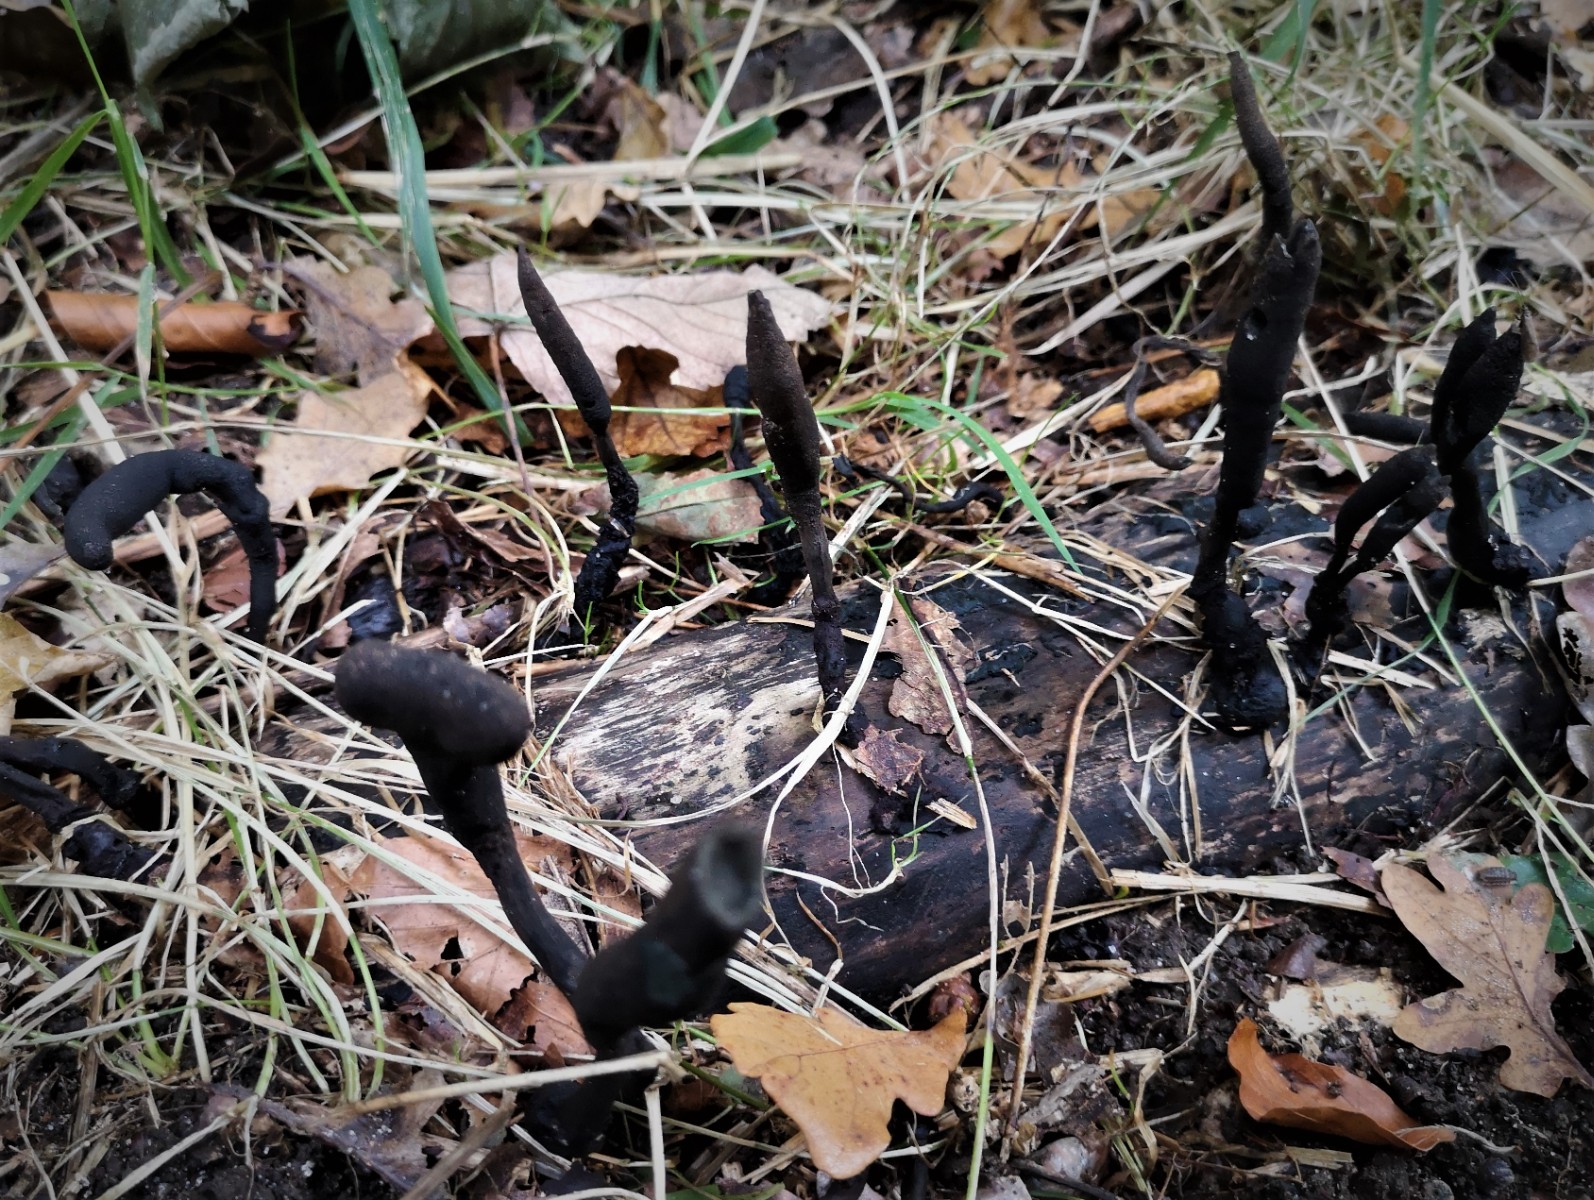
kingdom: Fungi
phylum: Ascomycota
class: Sordariomycetes
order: Xylariales
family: Xylariaceae
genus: Xylaria
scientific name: Xylaria longipes
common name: slank stødsvamp
